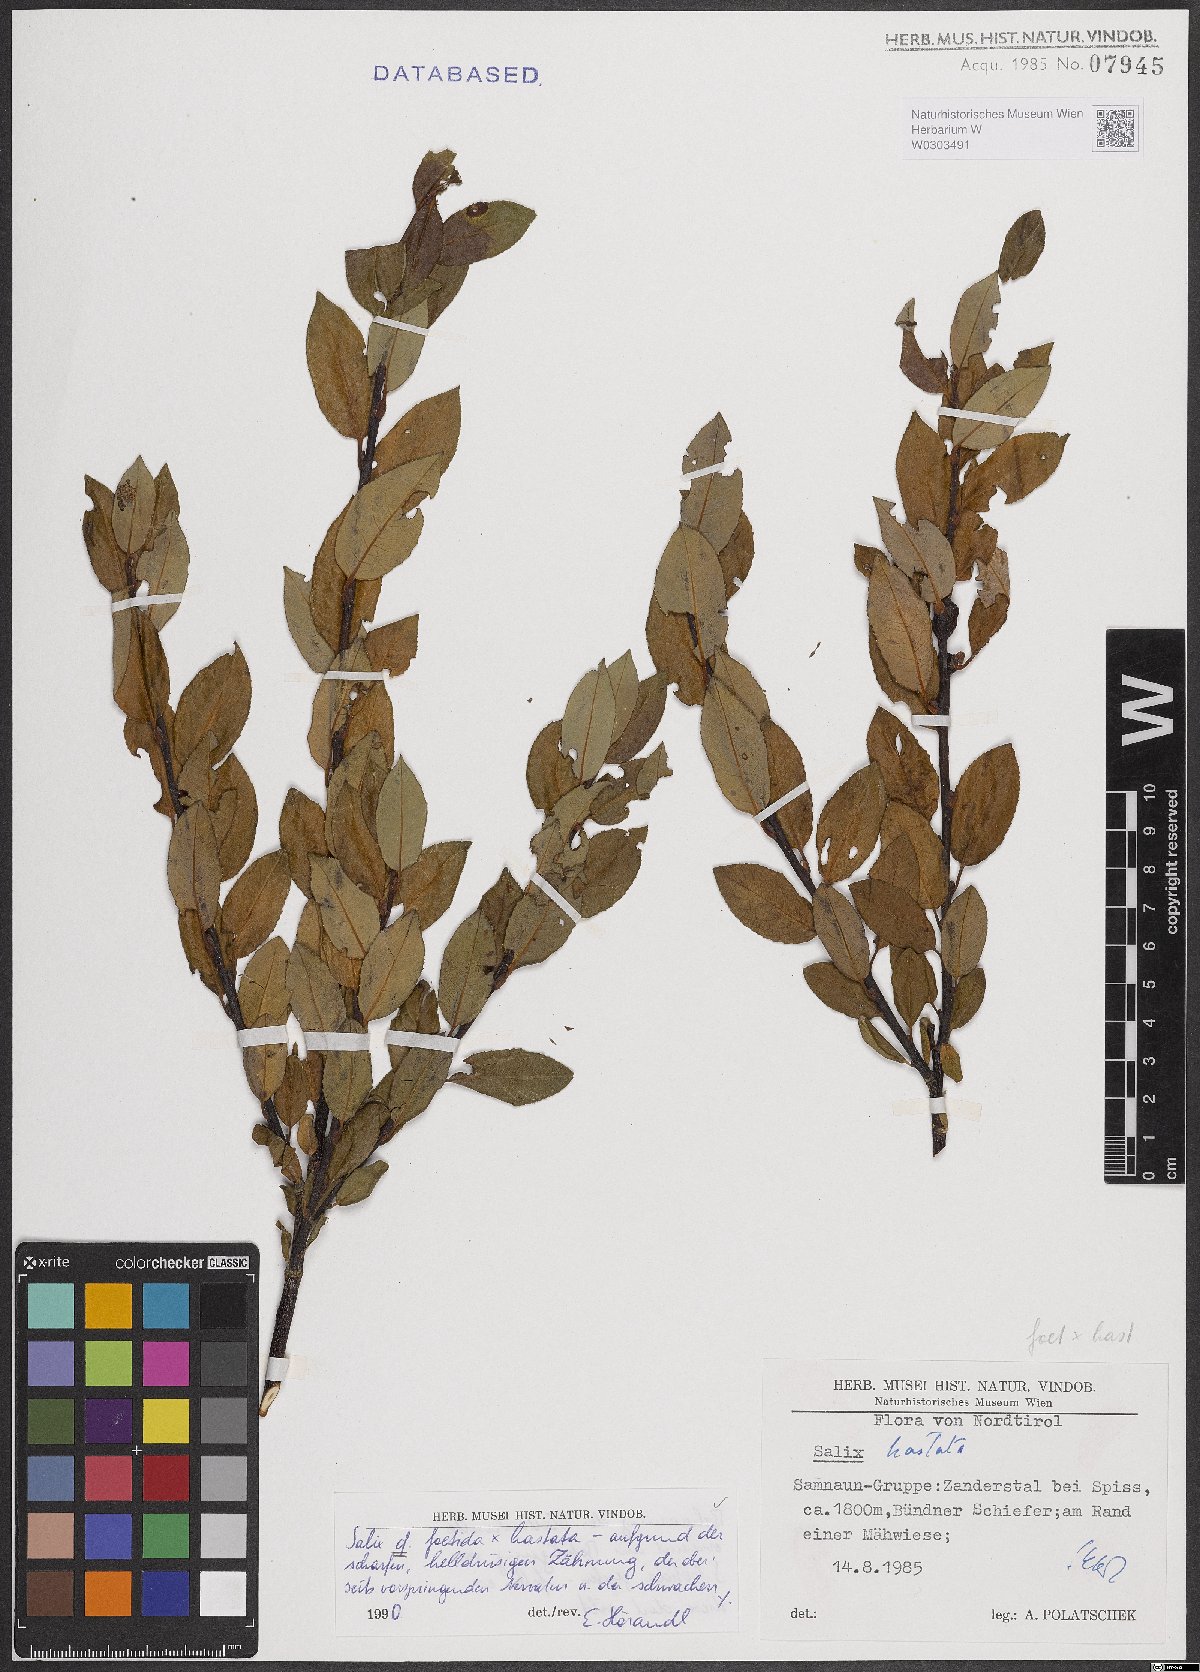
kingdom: Plantae
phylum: Tracheophyta
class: Magnoliopsida
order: Malpighiales
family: Salicaceae
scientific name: Salicaceae
